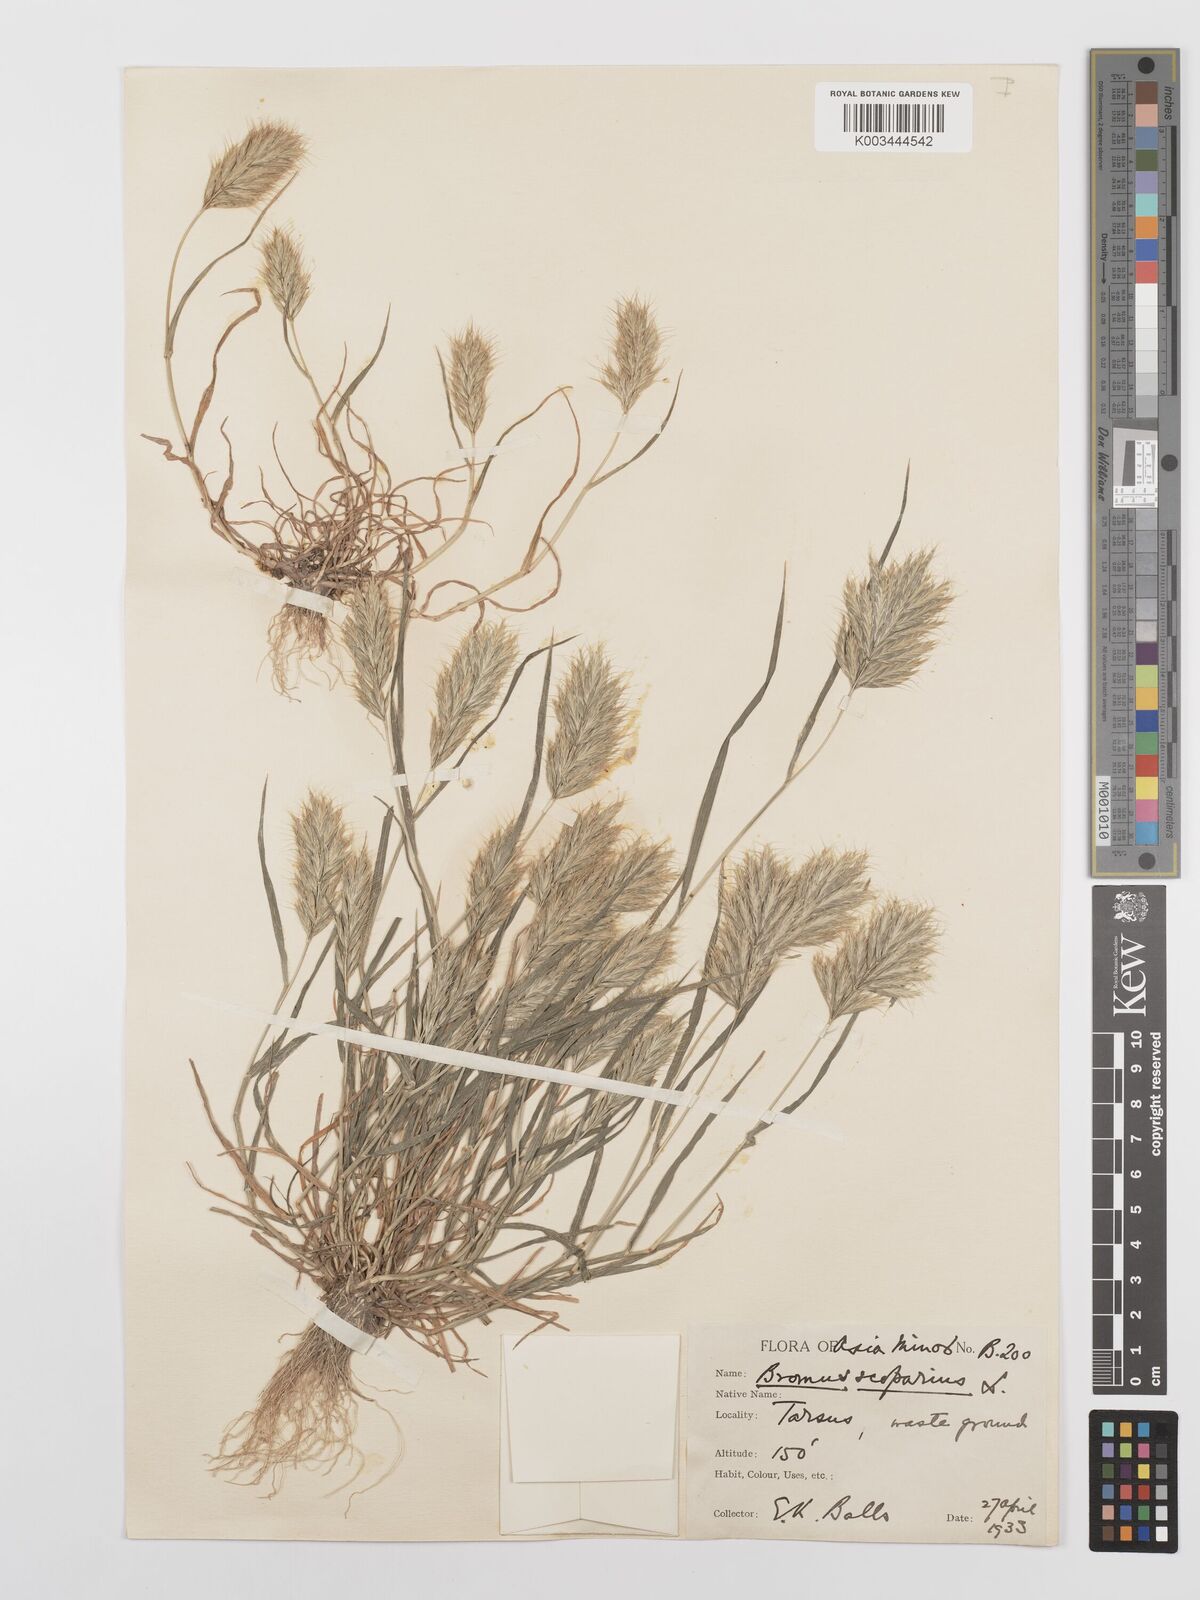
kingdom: Plantae
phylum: Tracheophyta
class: Liliopsida
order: Poales
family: Poaceae
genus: Bromus
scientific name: Bromus scoparius
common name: Broom brome
